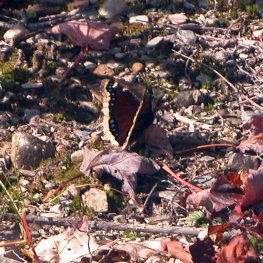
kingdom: Animalia
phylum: Arthropoda
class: Insecta
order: Lepidoptera
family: Nymphalidae
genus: Nymphalis
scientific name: Nymphalis antiopa
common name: Mourning Cloak
